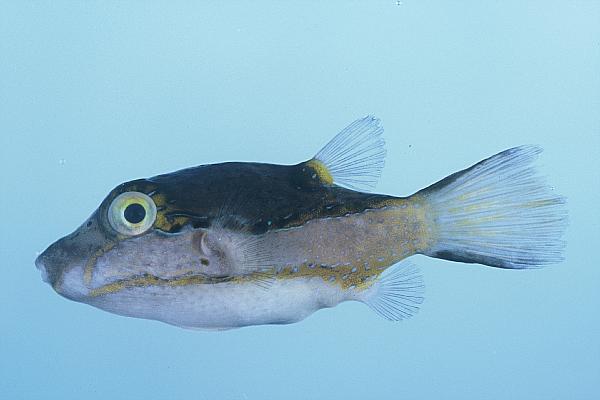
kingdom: Animalia
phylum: Chordata
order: Tetraodontiformes
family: Tetraodontidae
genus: Canthigaster
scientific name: Canthigaster smithae
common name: Bicolored toby
